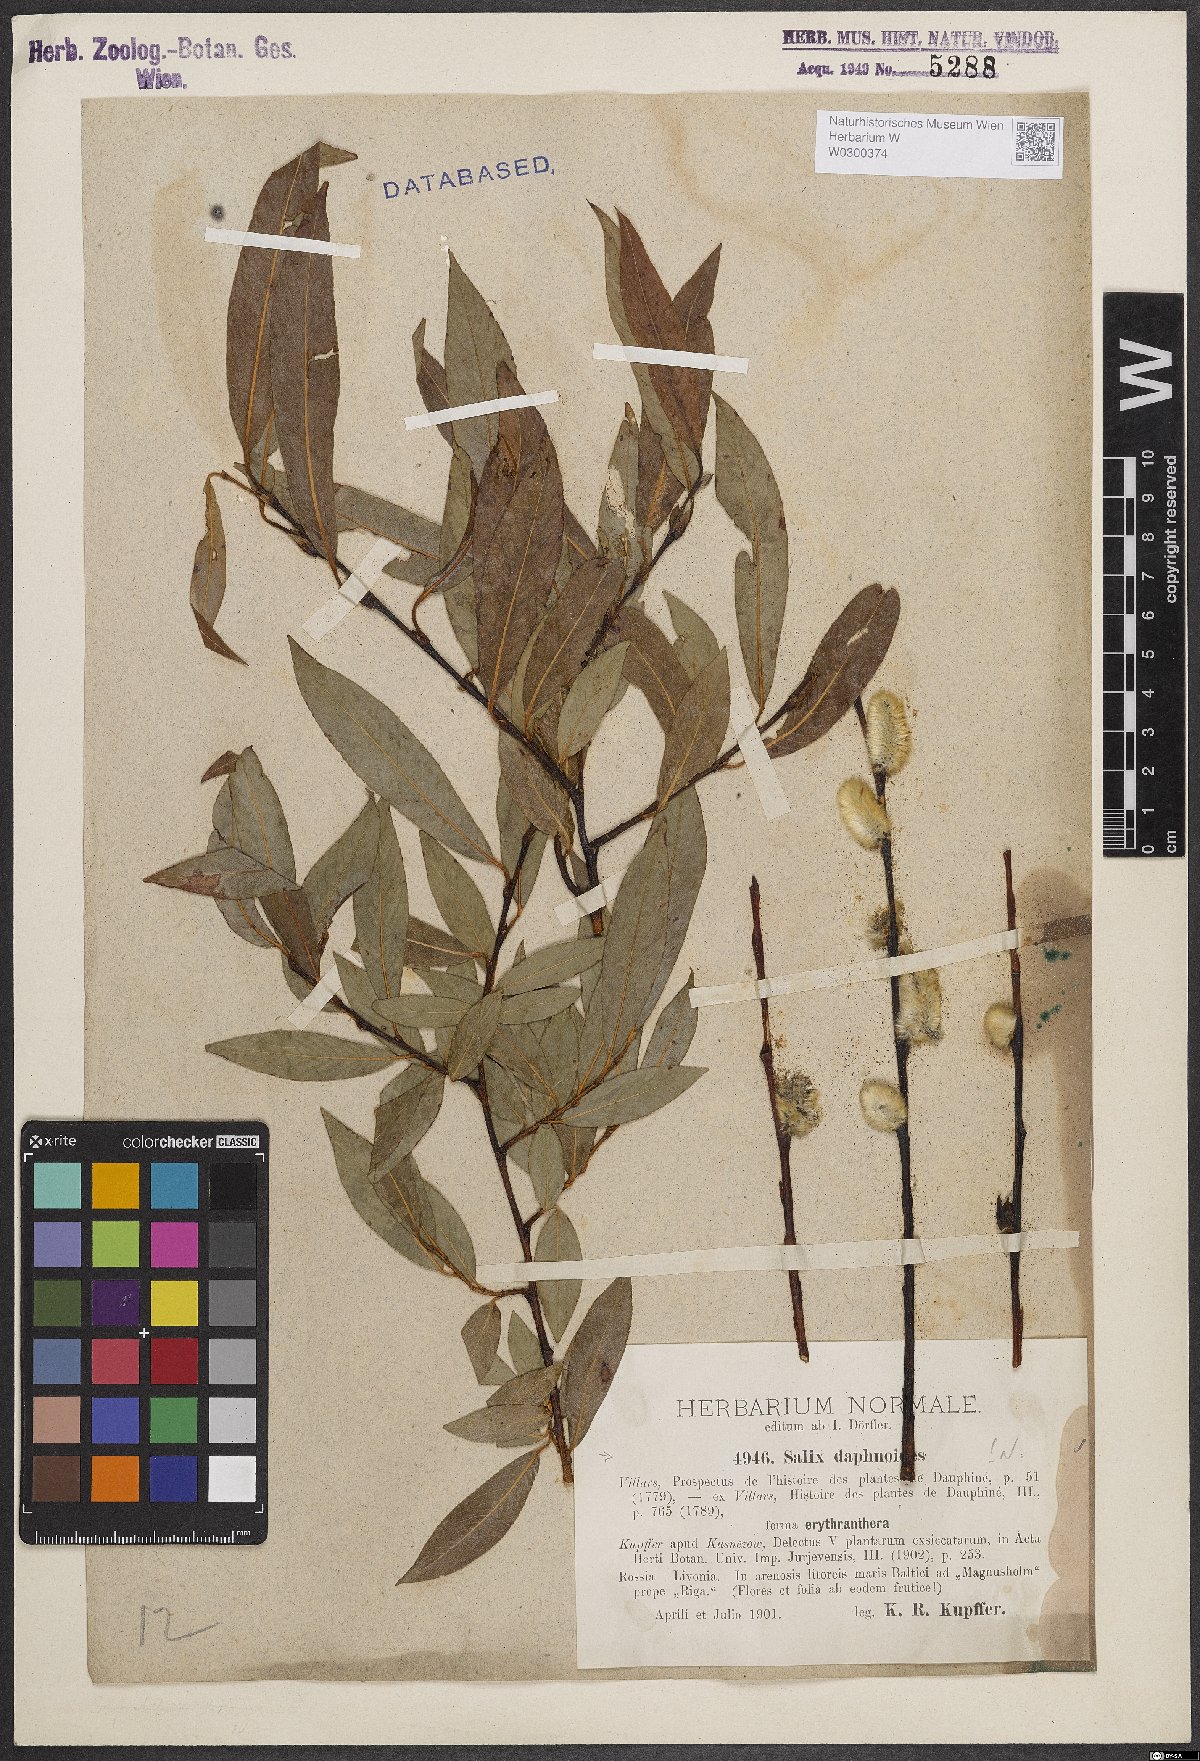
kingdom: Plantae
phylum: Tracheophyta
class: Magnoliopsida
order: Malpighiales
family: Salicaceae
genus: Salix
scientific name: Salix daphnoides
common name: European violet-willow
